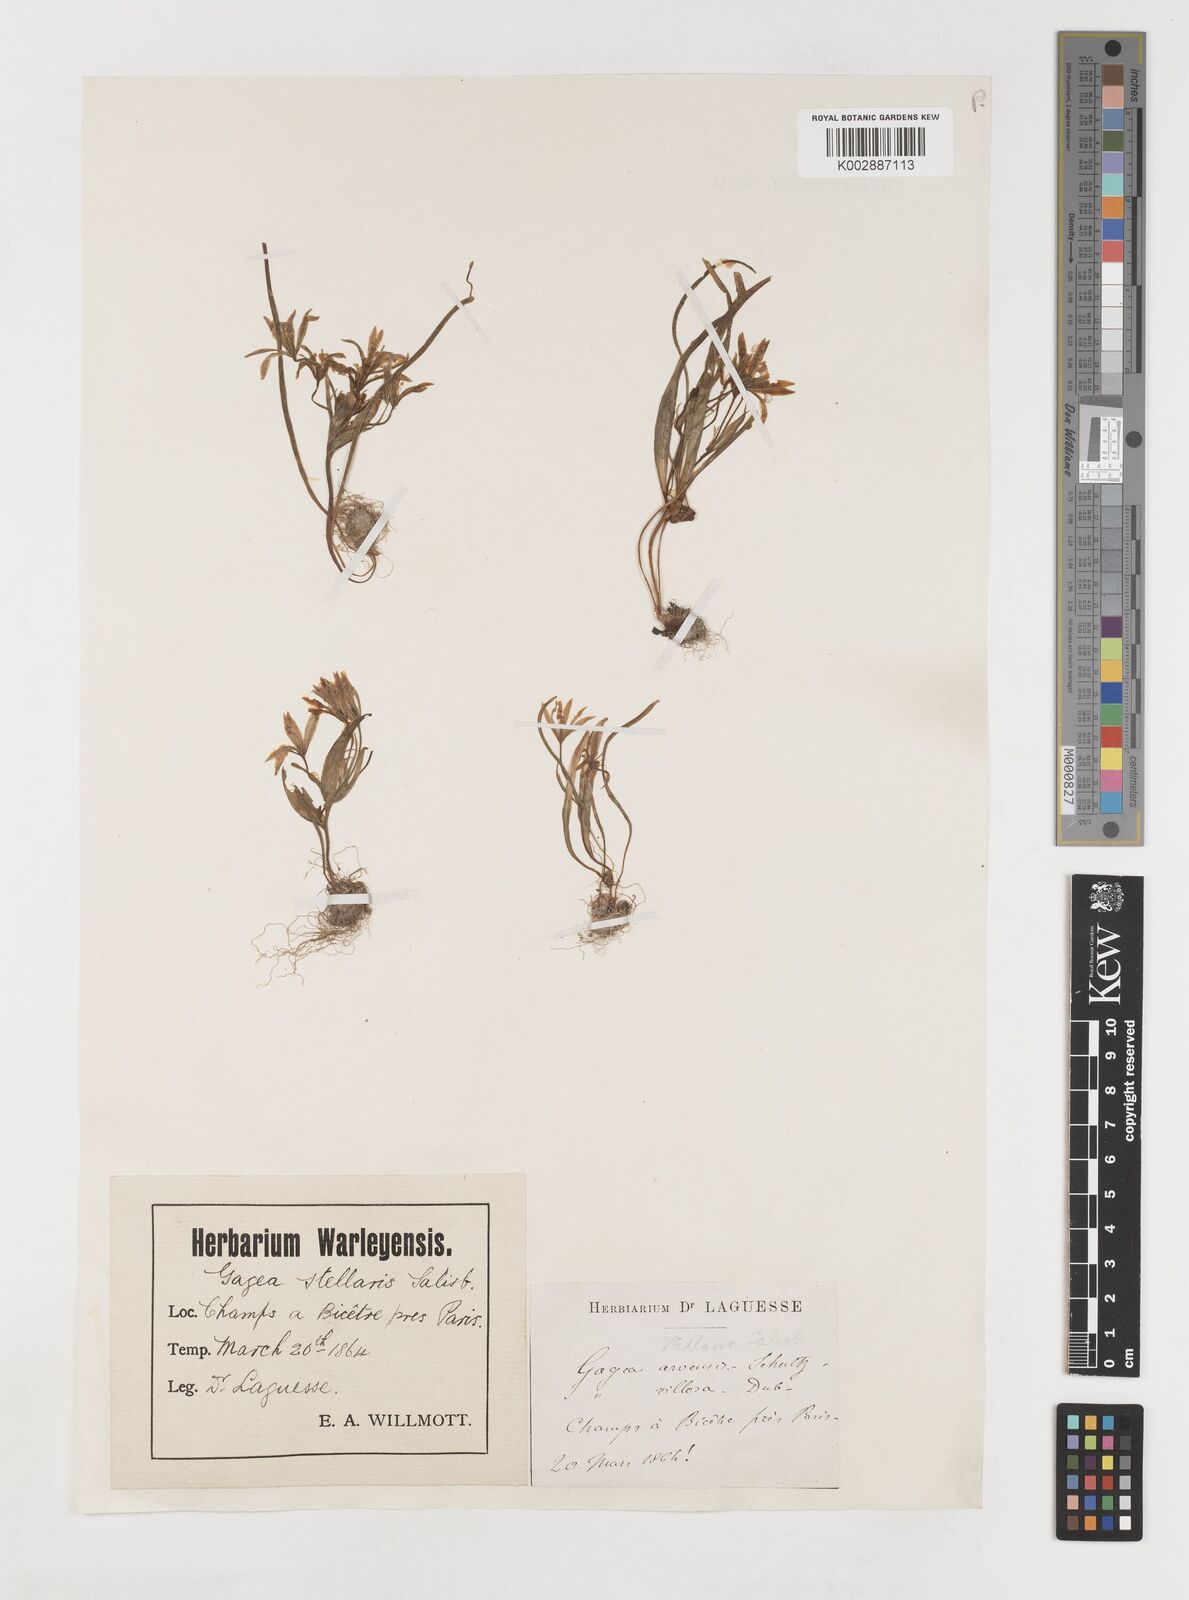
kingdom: Plantae
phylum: Tracheophyta
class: Liliopsida
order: Liliales
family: Liliaceae
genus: Gagea
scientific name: Gagea villosa
